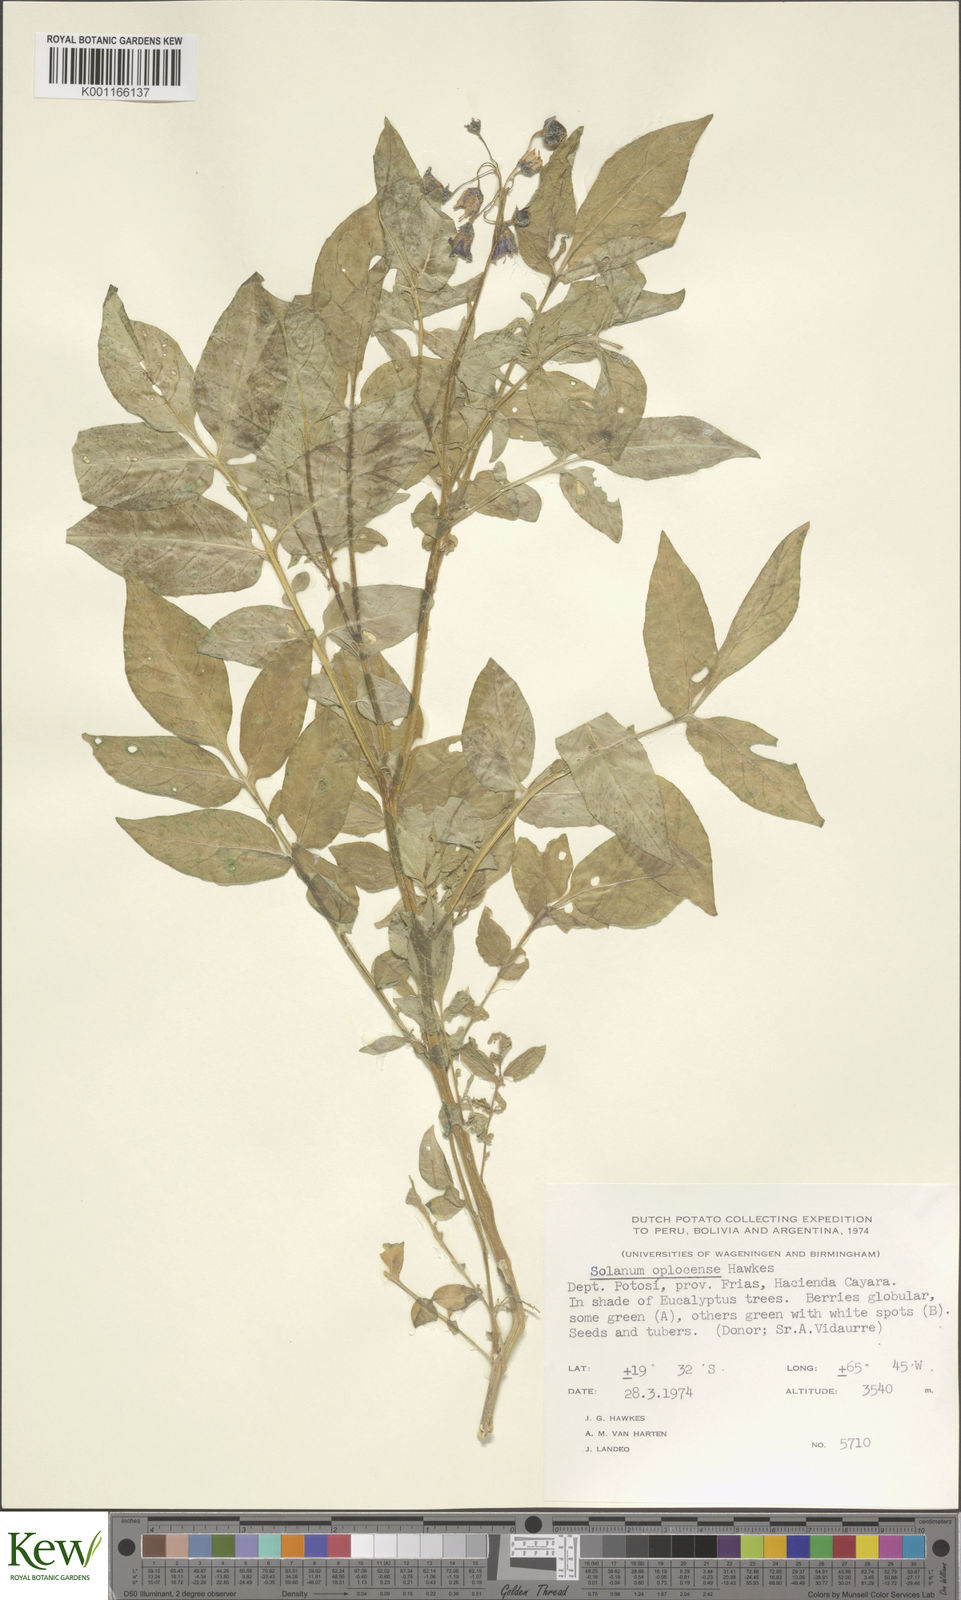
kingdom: Plantae
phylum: Tracheophyta
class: Magnoliopsida
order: Solanales
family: Solanaceae
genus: Solanum
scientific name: Solanum brevicaule
